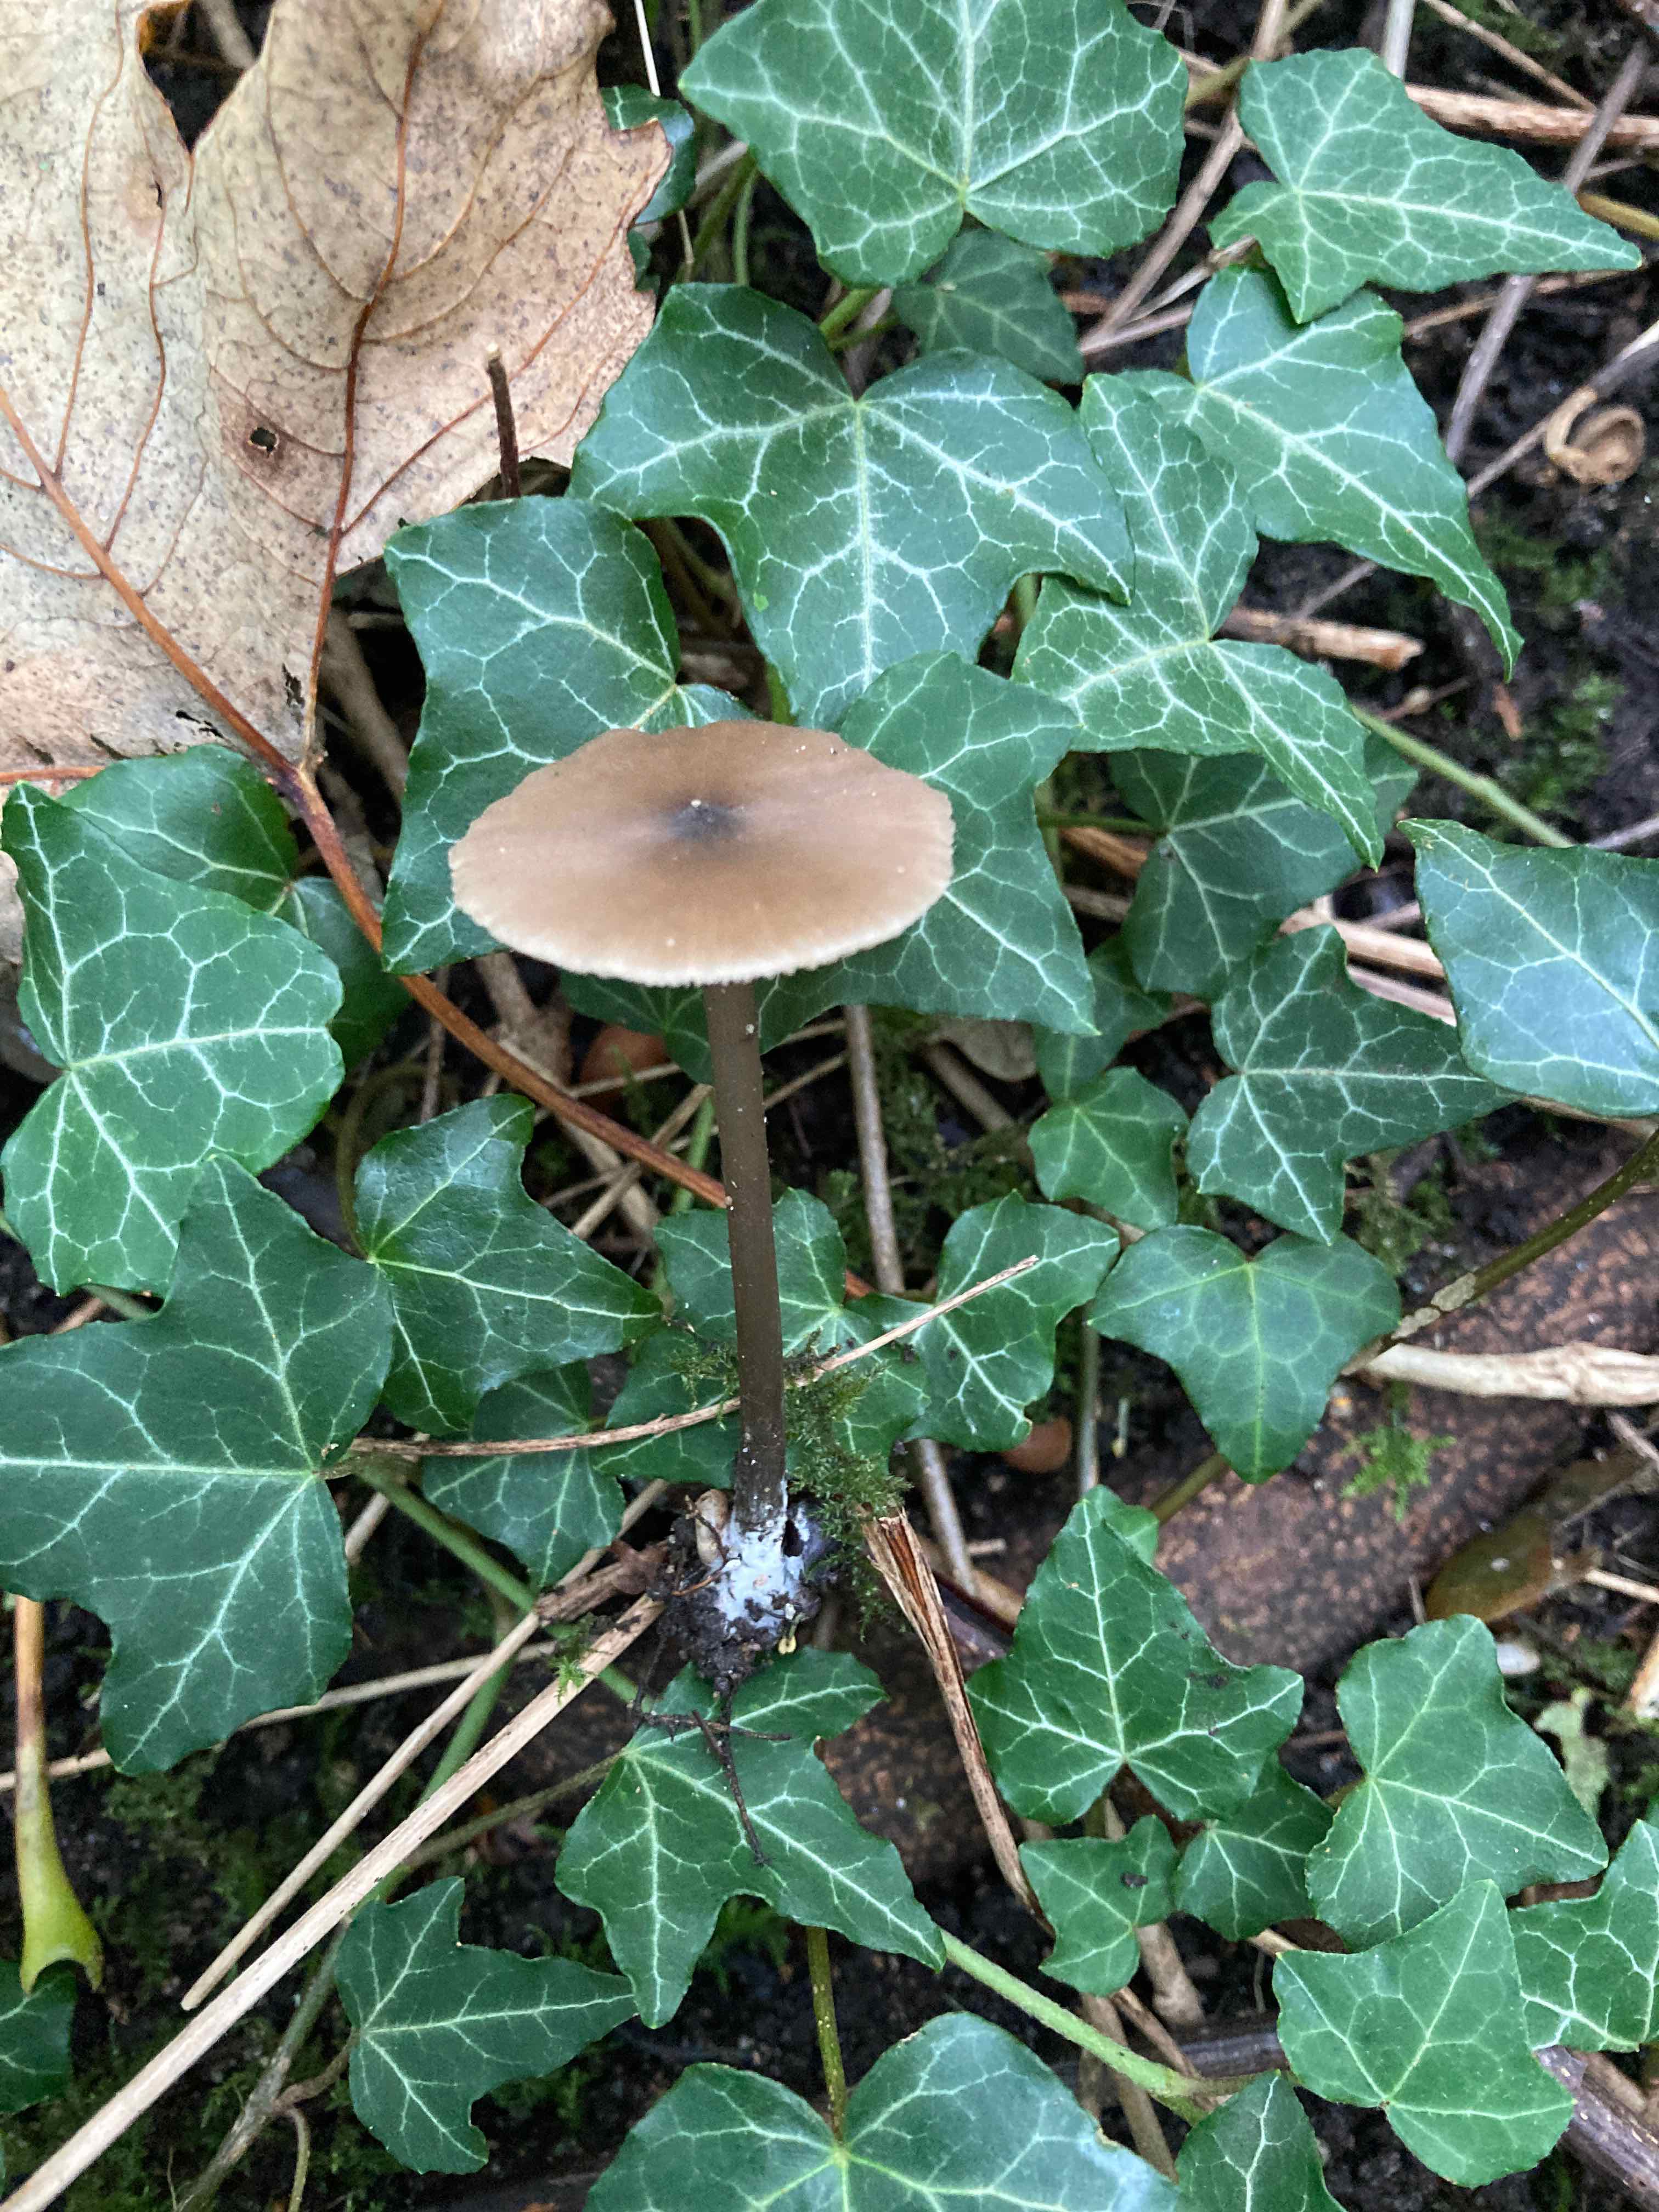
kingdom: Fungi
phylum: Basidiomycota
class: Agaricomycetes
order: Agaricales
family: Entolomataceae
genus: Entoloma
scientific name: Entoloma hebes
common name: krat-rødblad
